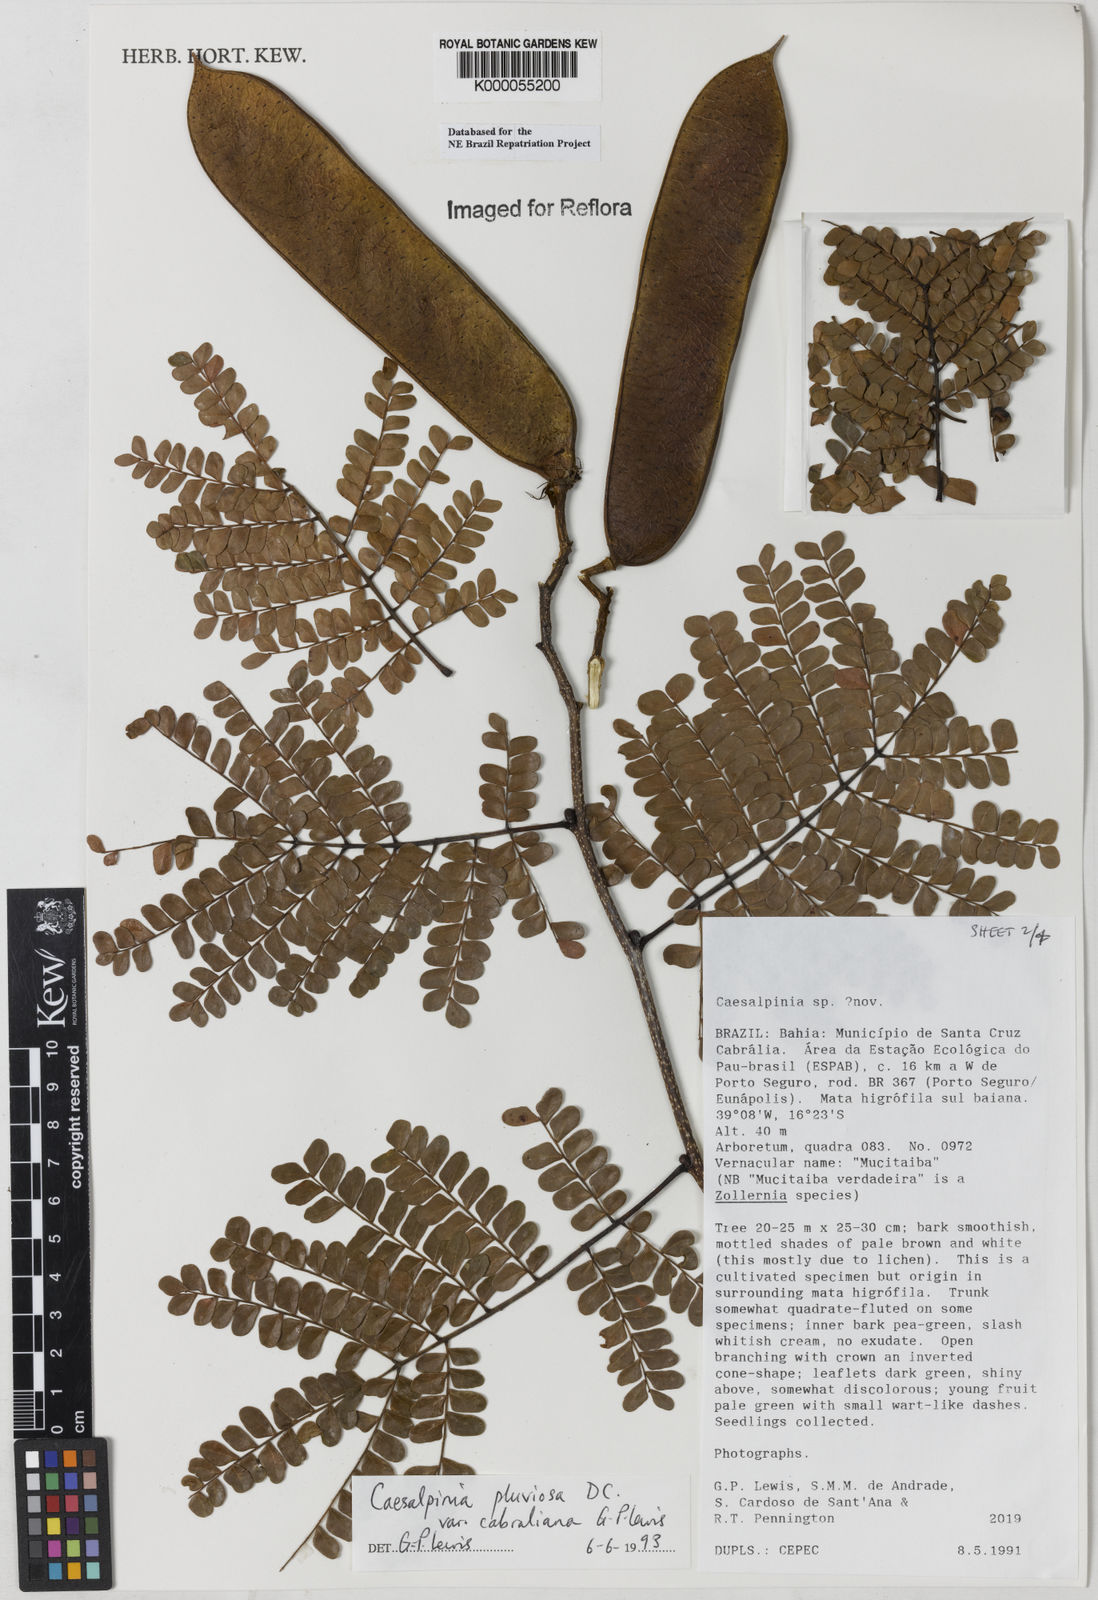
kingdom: Plantae
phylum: Tracheophyta
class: Magnoliopsida
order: Fabales
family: Fabaceae
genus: Cenostigma
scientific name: Cenostigma pluviosum
